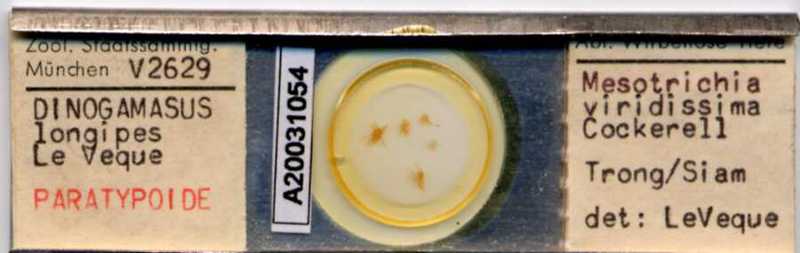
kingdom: Animalia
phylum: Arthropoda
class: Arachnida
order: Mesostigmata
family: Laelapidae
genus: Dinogamasus
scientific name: Dinogamasus
